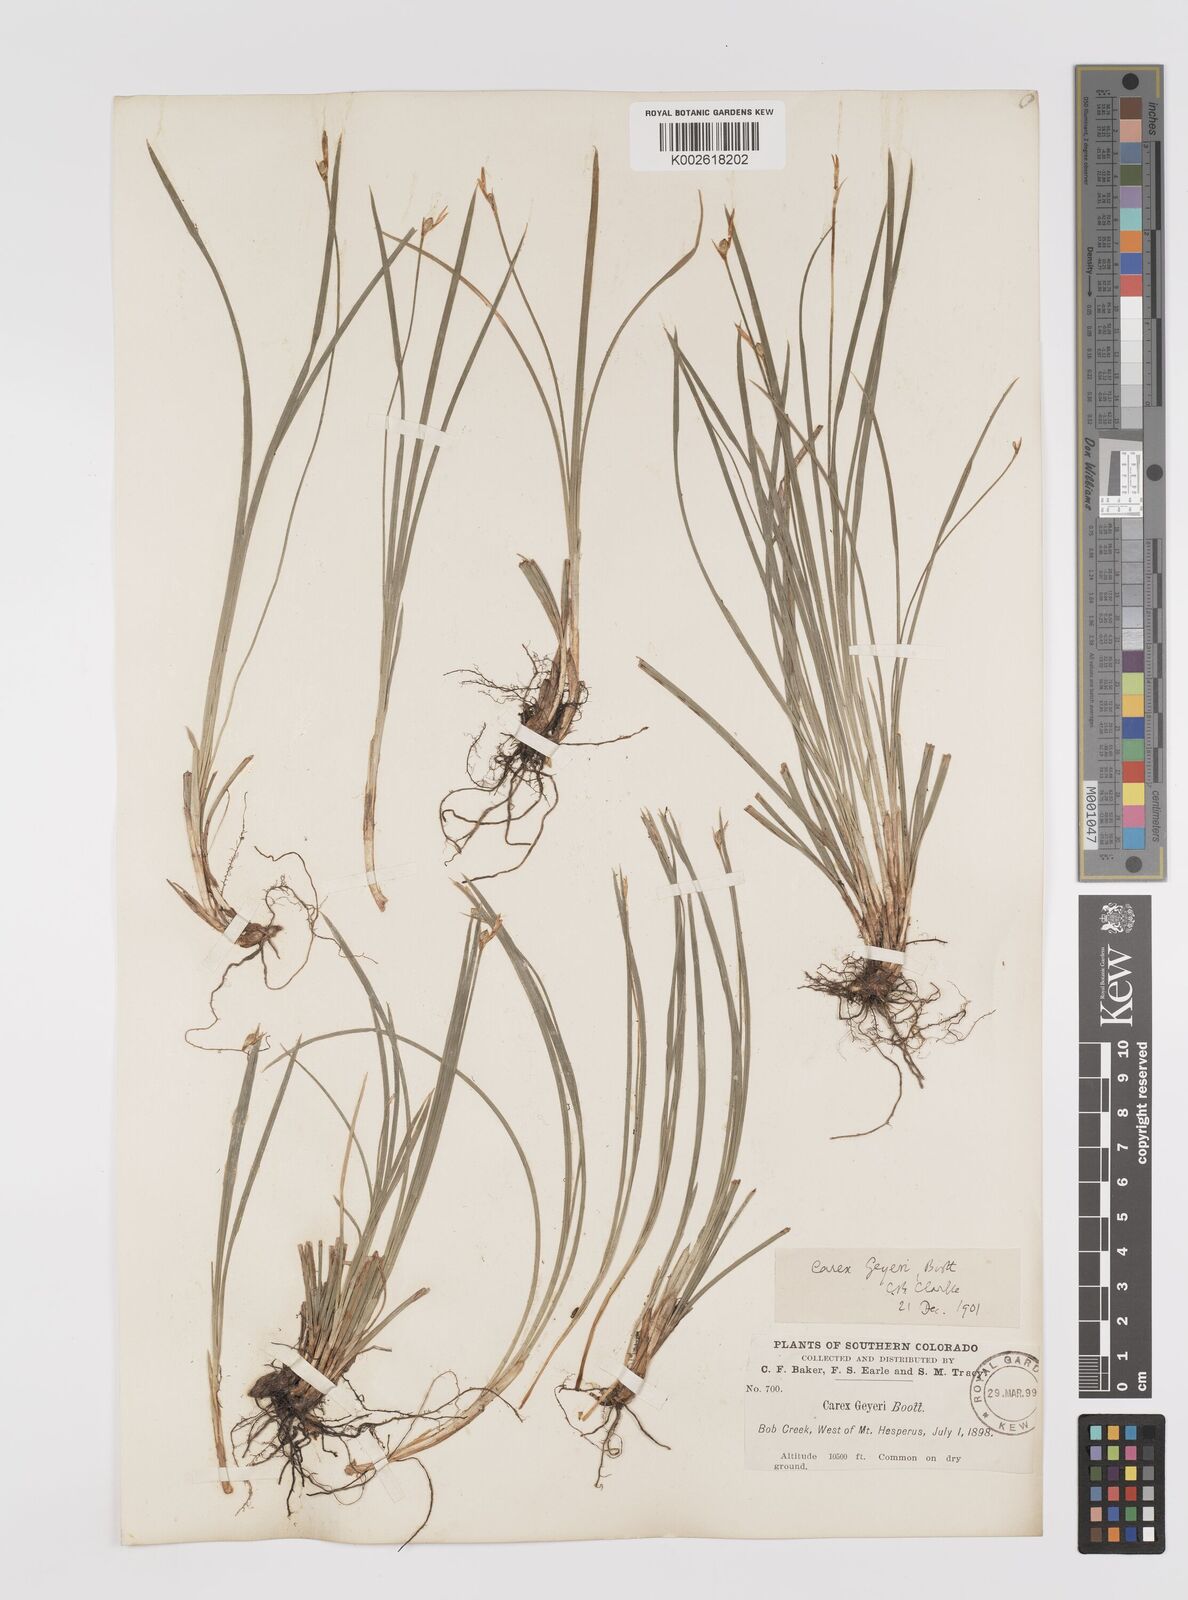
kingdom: Plantae
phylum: Tracheophyta
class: Liliopsida
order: Poales
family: Cyperaceae
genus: Carex
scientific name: Carex geyeri
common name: Elk sedge
